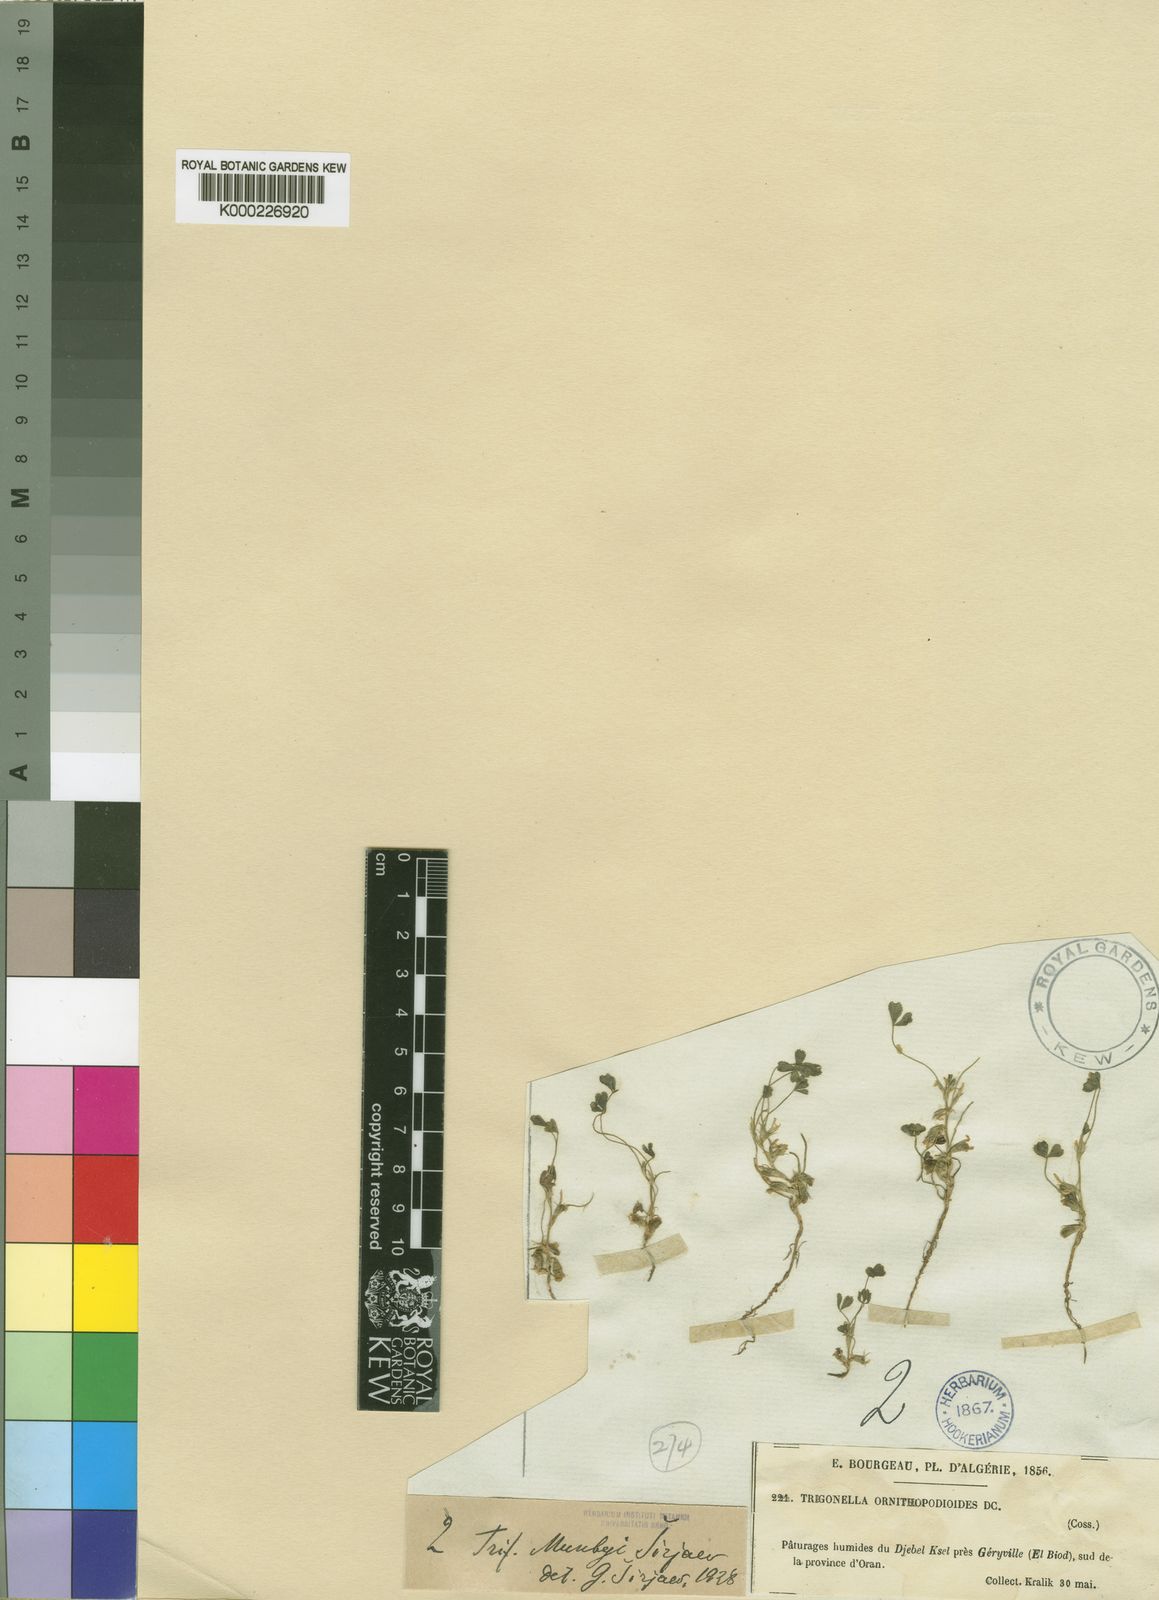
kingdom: Plantae
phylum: Tracheophyta
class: Magnoliopsida
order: Fabales
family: Fabaceae
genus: Trifolium
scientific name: Trifolium
